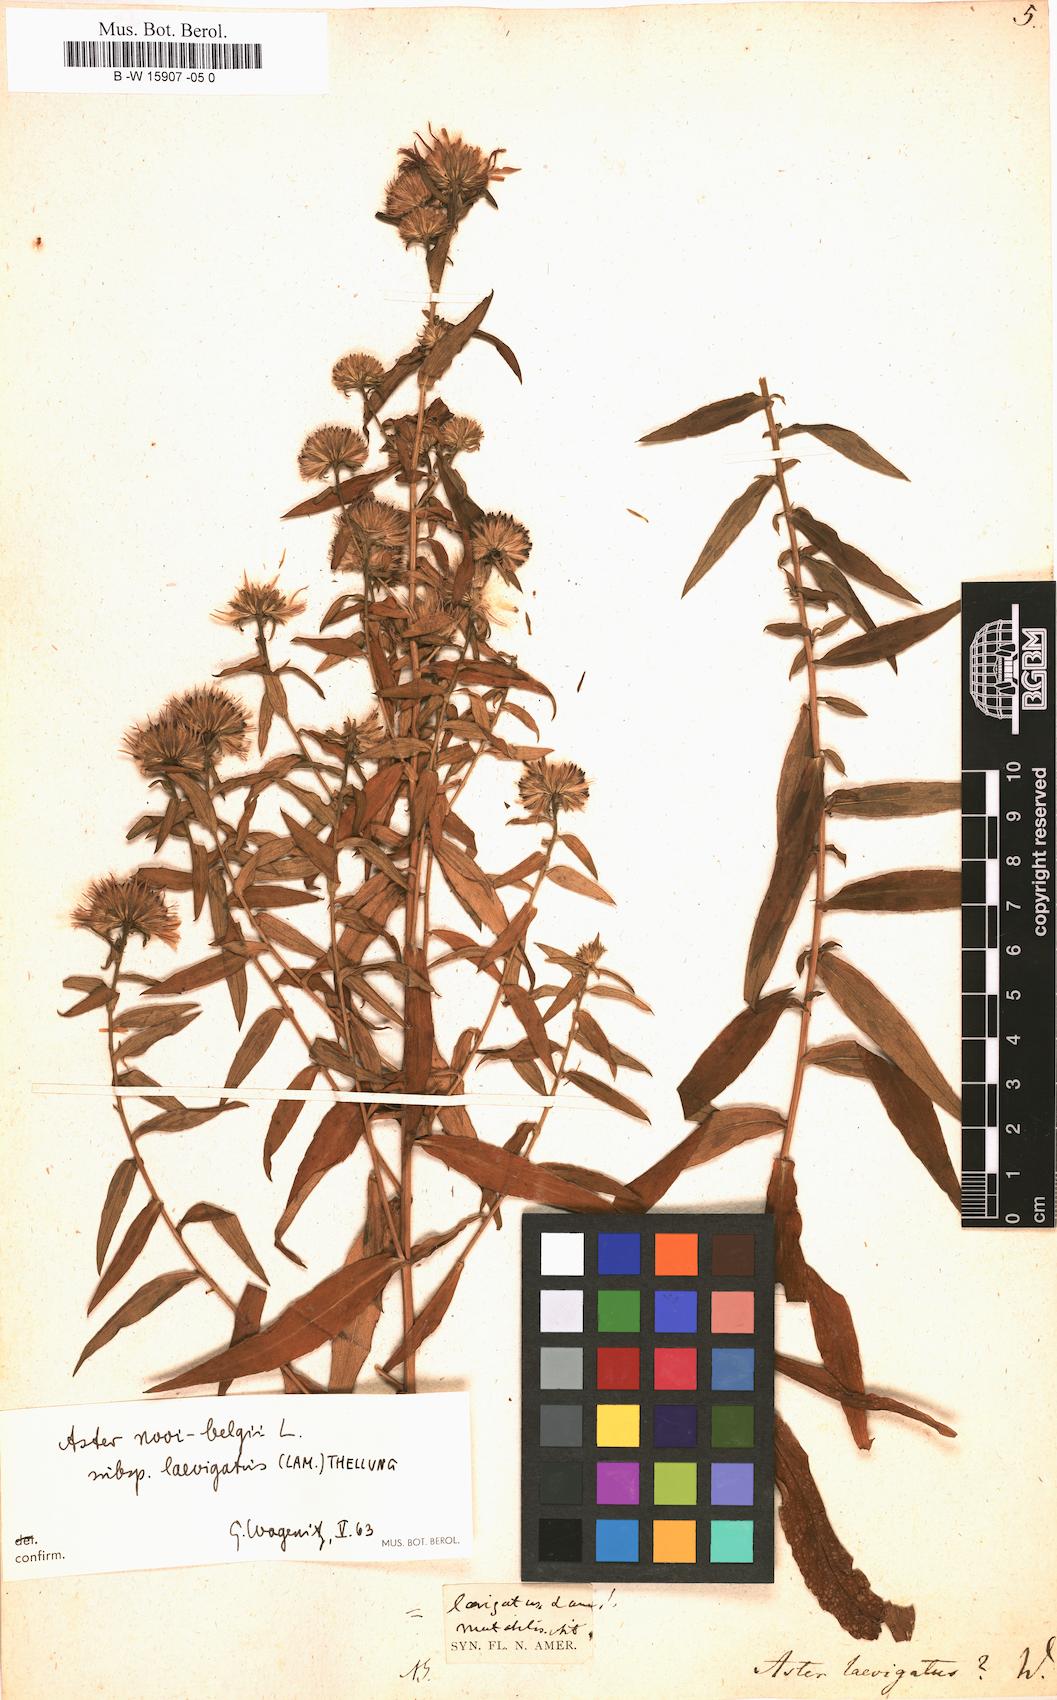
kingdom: Plantae
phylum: Tracheophyta
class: Magnoliopsida
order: Asterales
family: Asteraceae
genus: Afroaster
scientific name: Afroaster laevigatus
